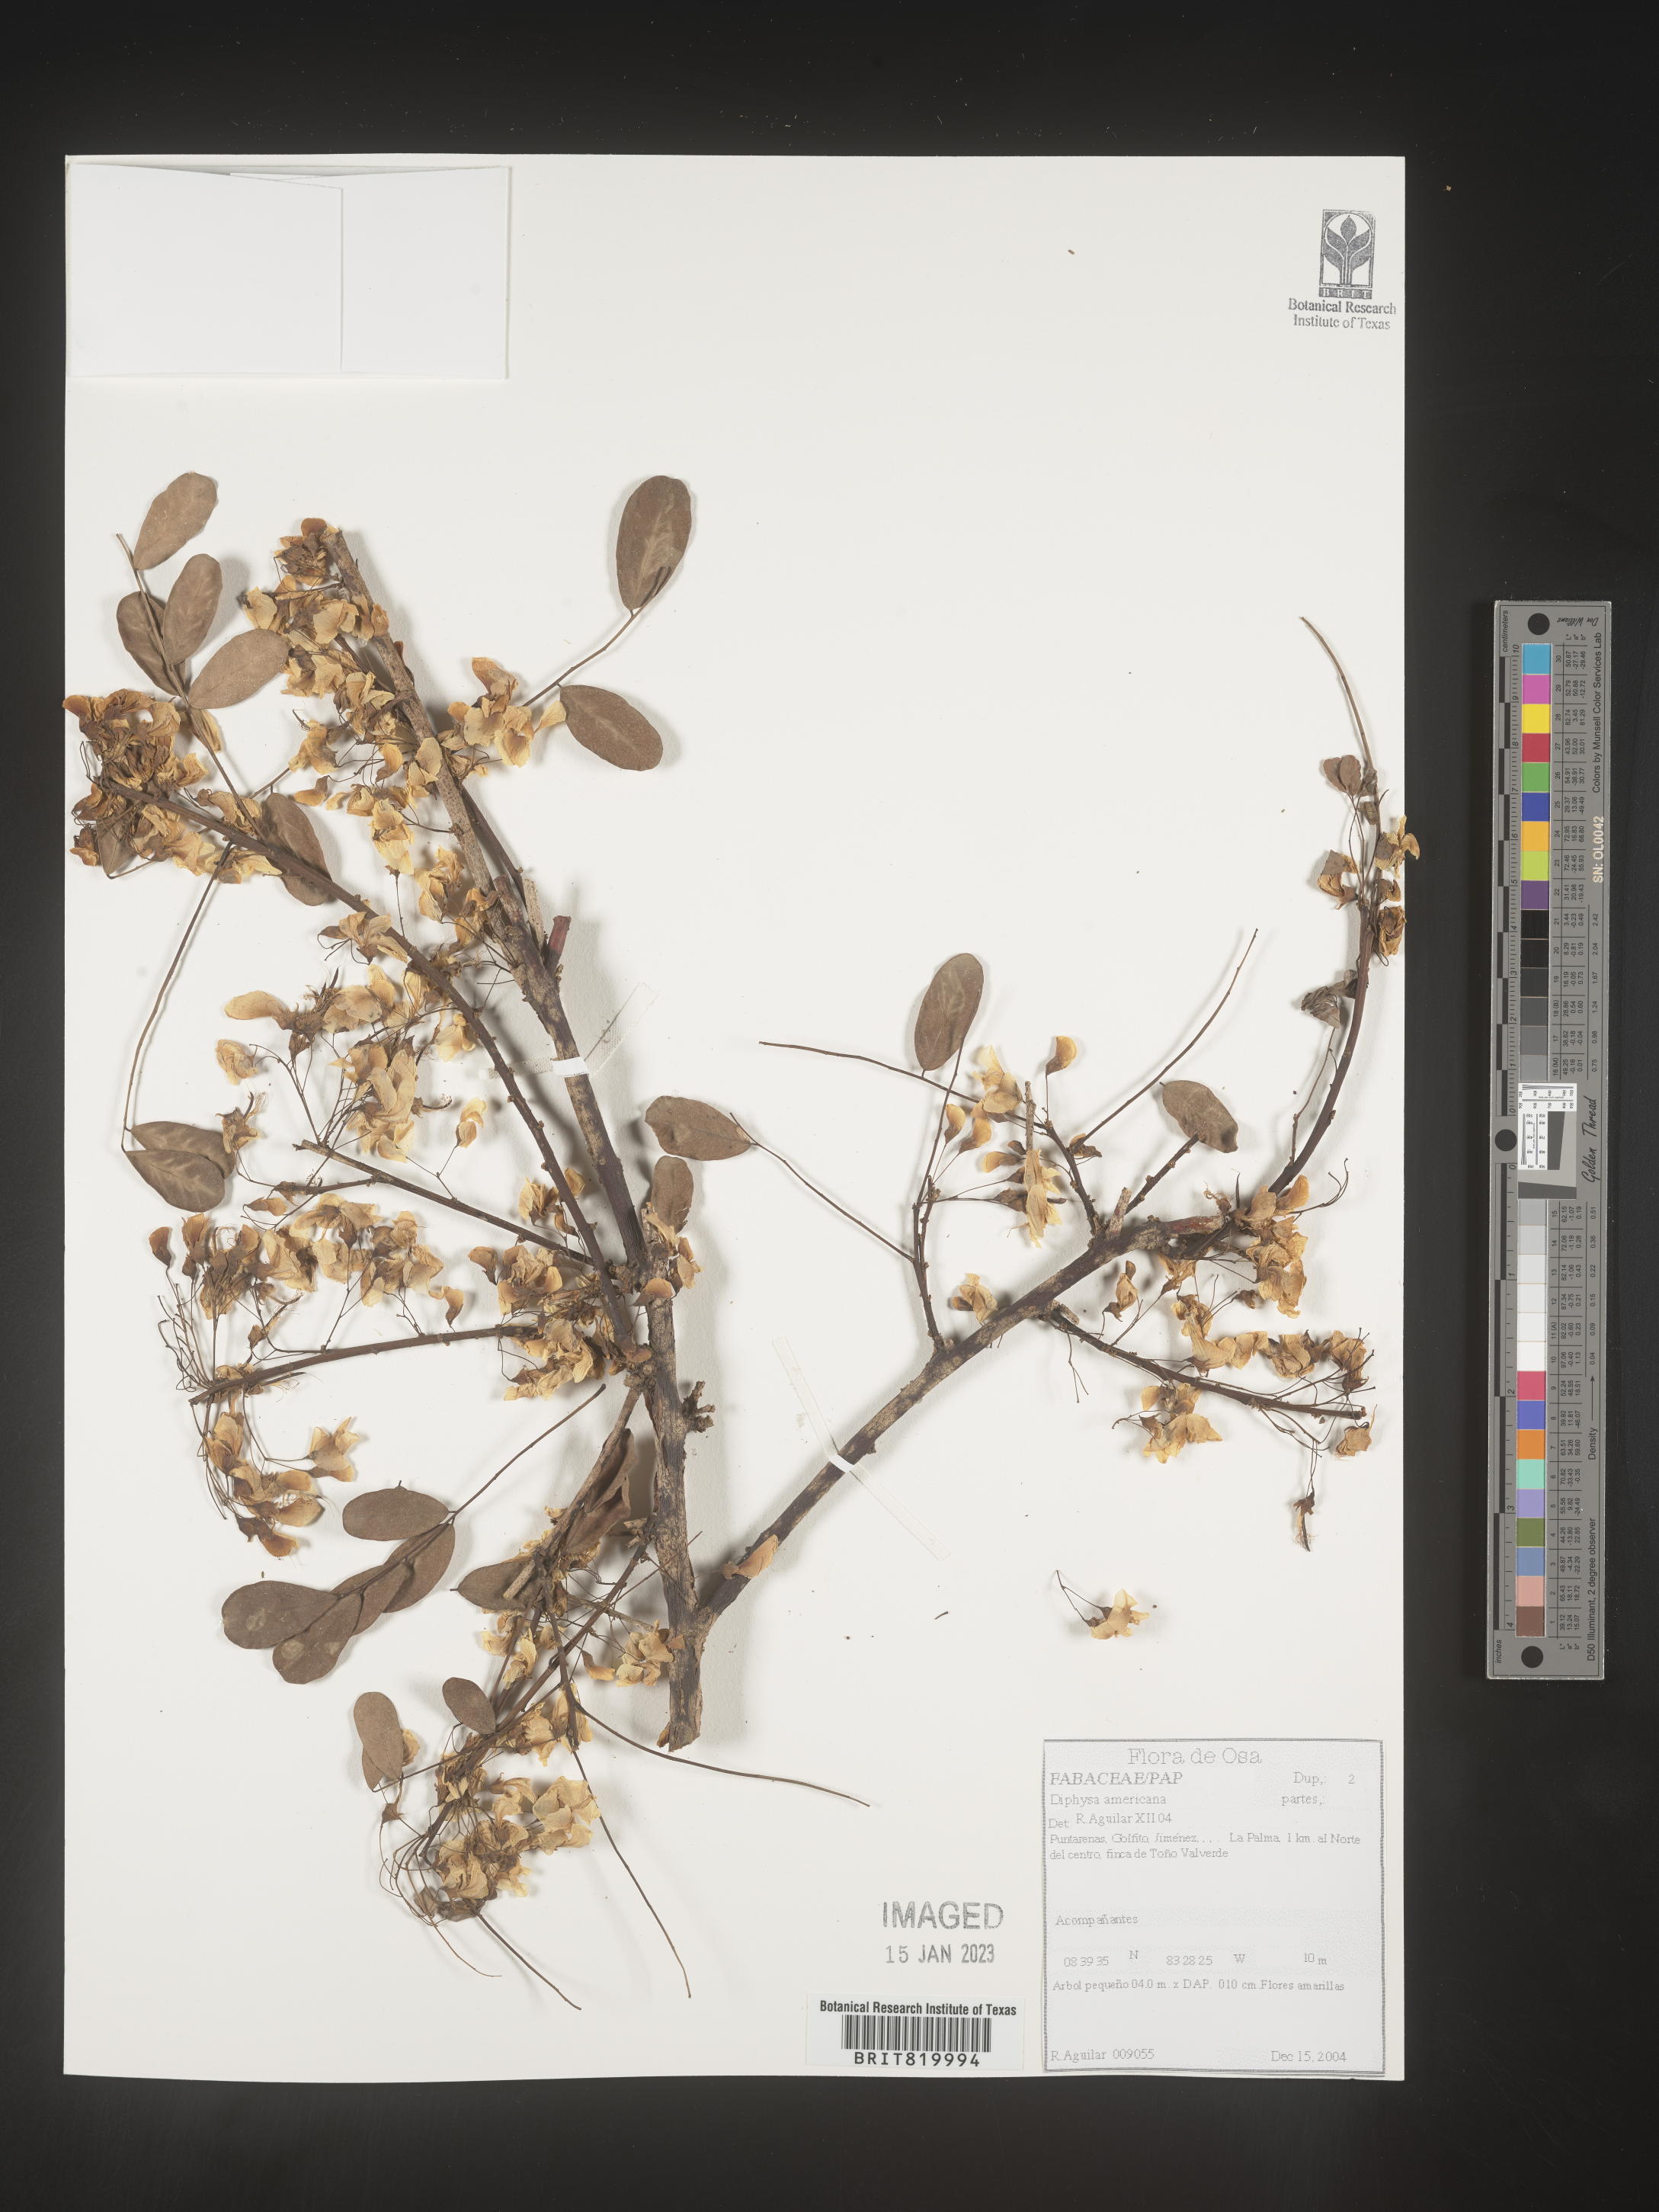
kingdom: Plantae
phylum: Tracheophyta
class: Magnoliopsida
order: Fabales
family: Fabaceae
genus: Diphysa
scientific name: Diphysa
